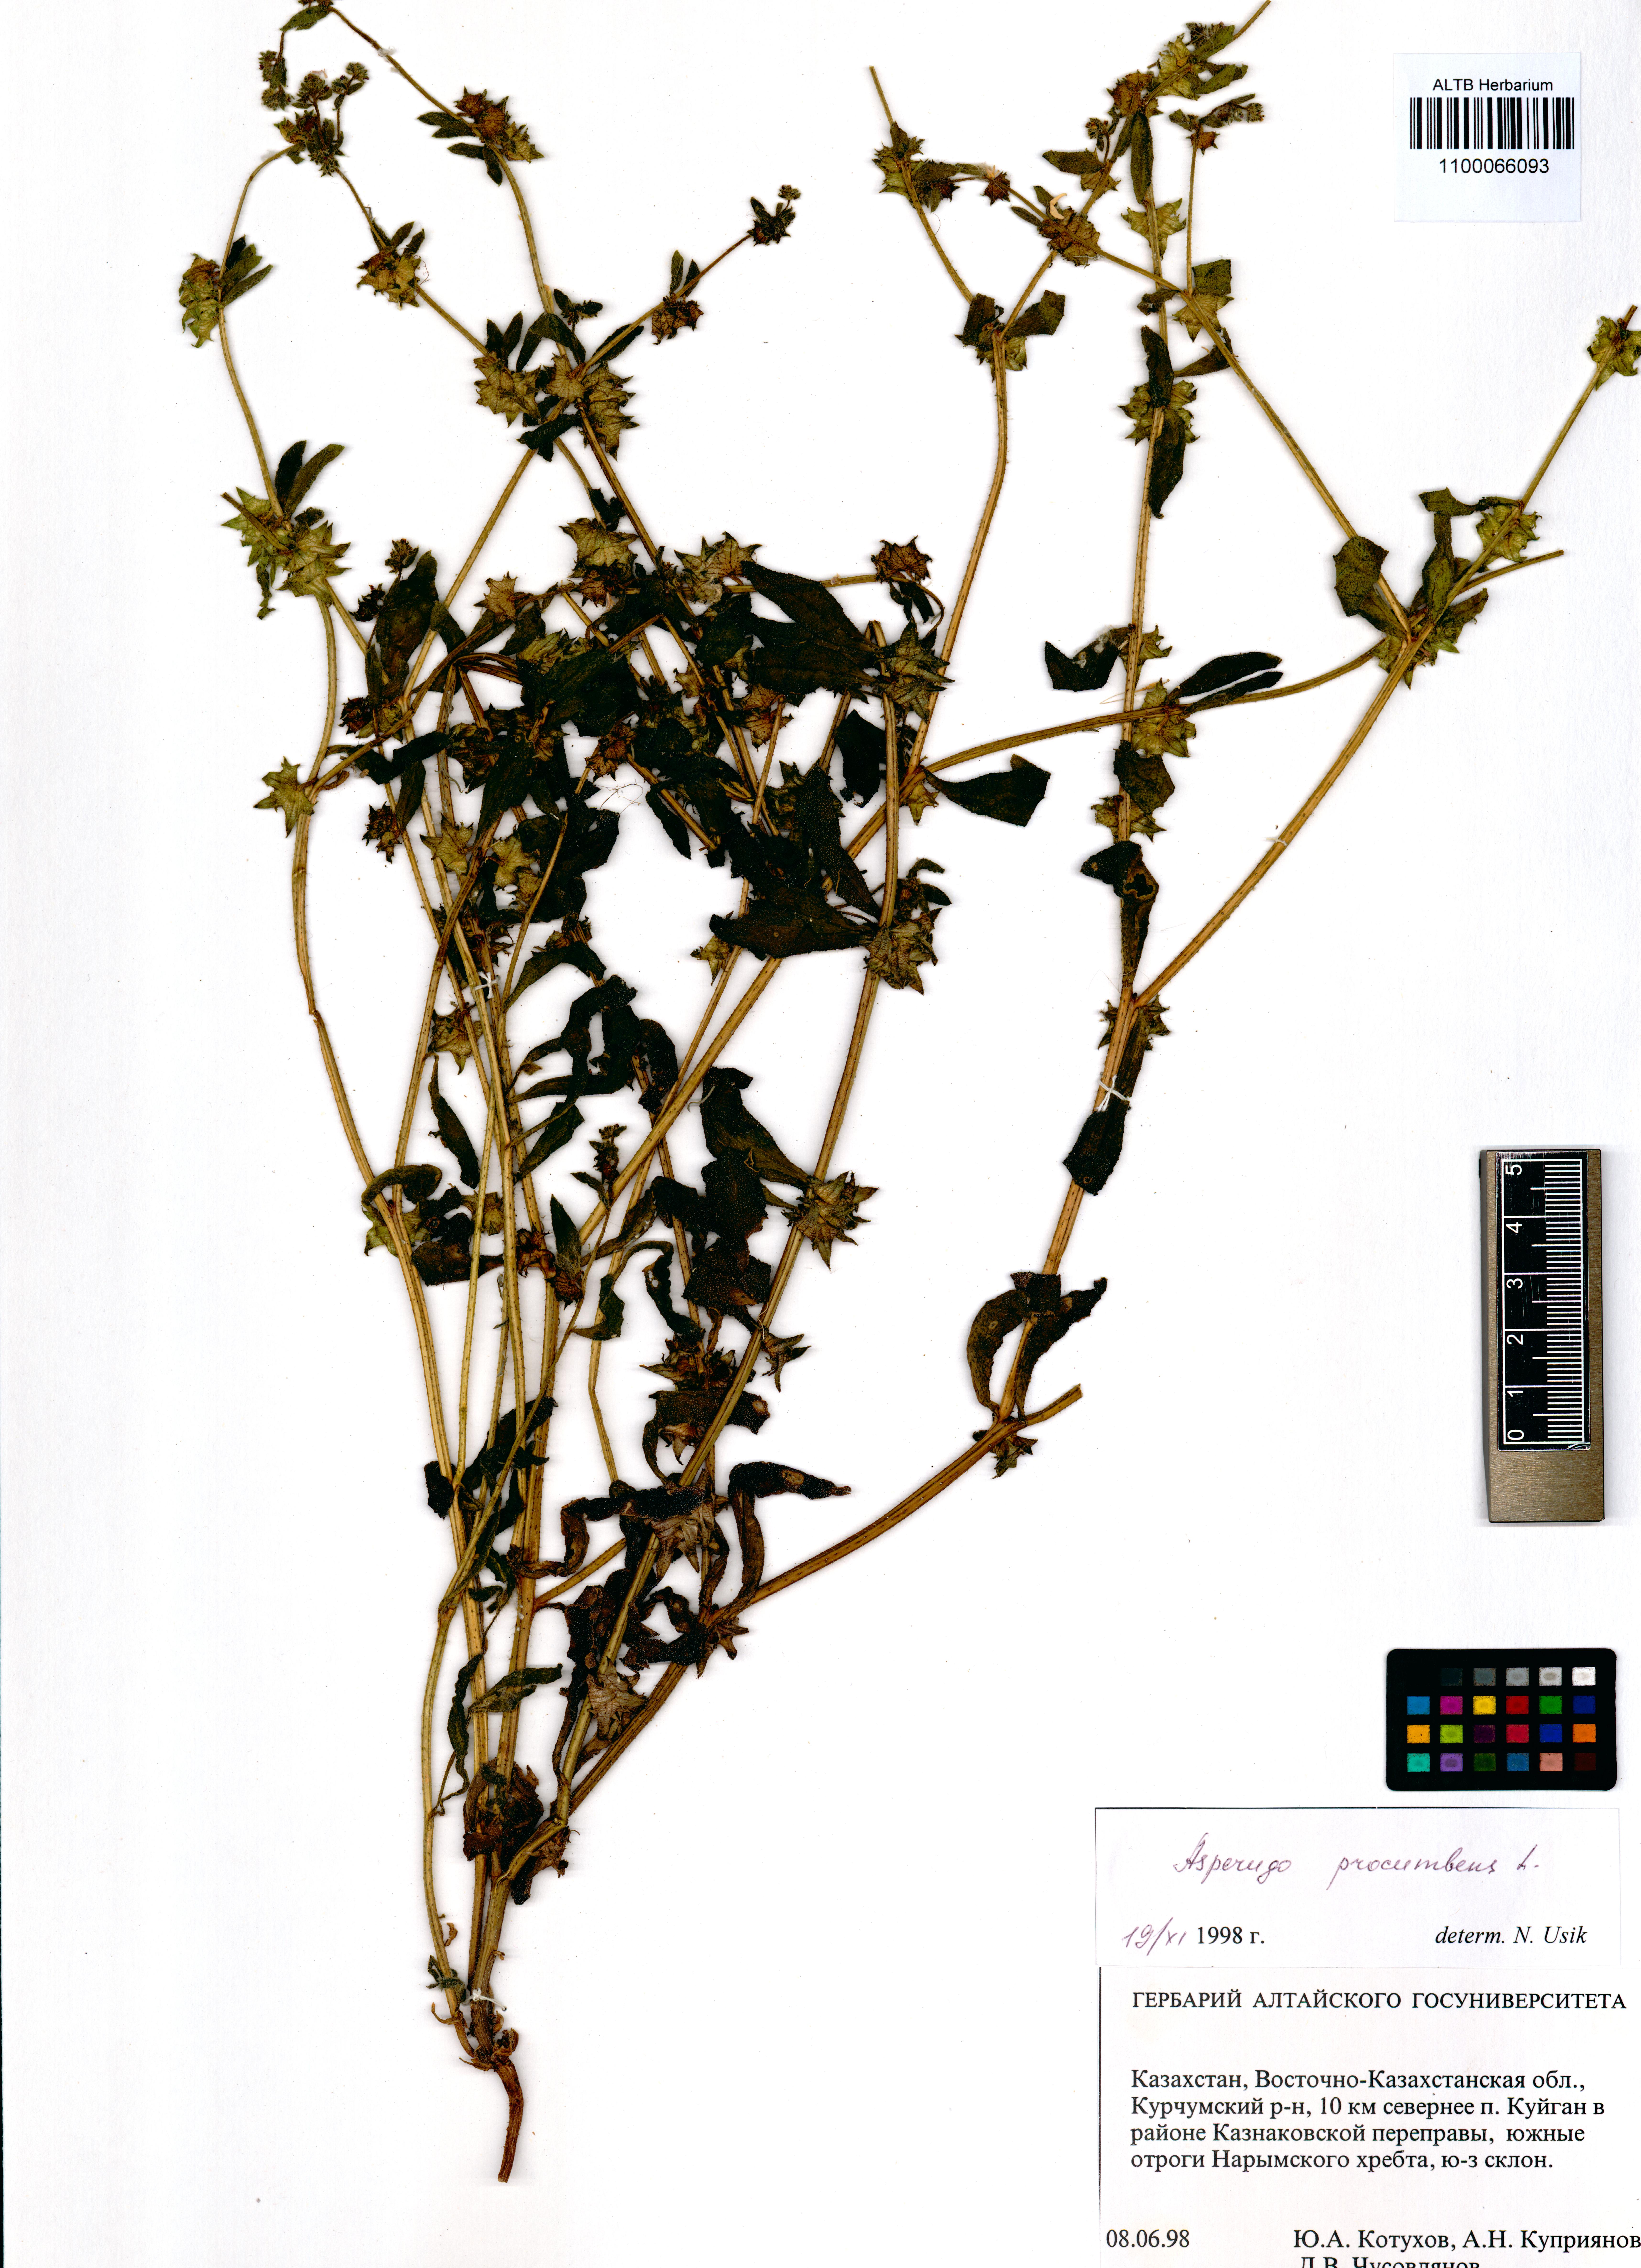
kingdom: Plantae
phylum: Tracheophyta
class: Magnoliopsida
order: Boraginales
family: Boraginaceae
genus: Asperugo
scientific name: Asperugo procumbens
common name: Madwort
